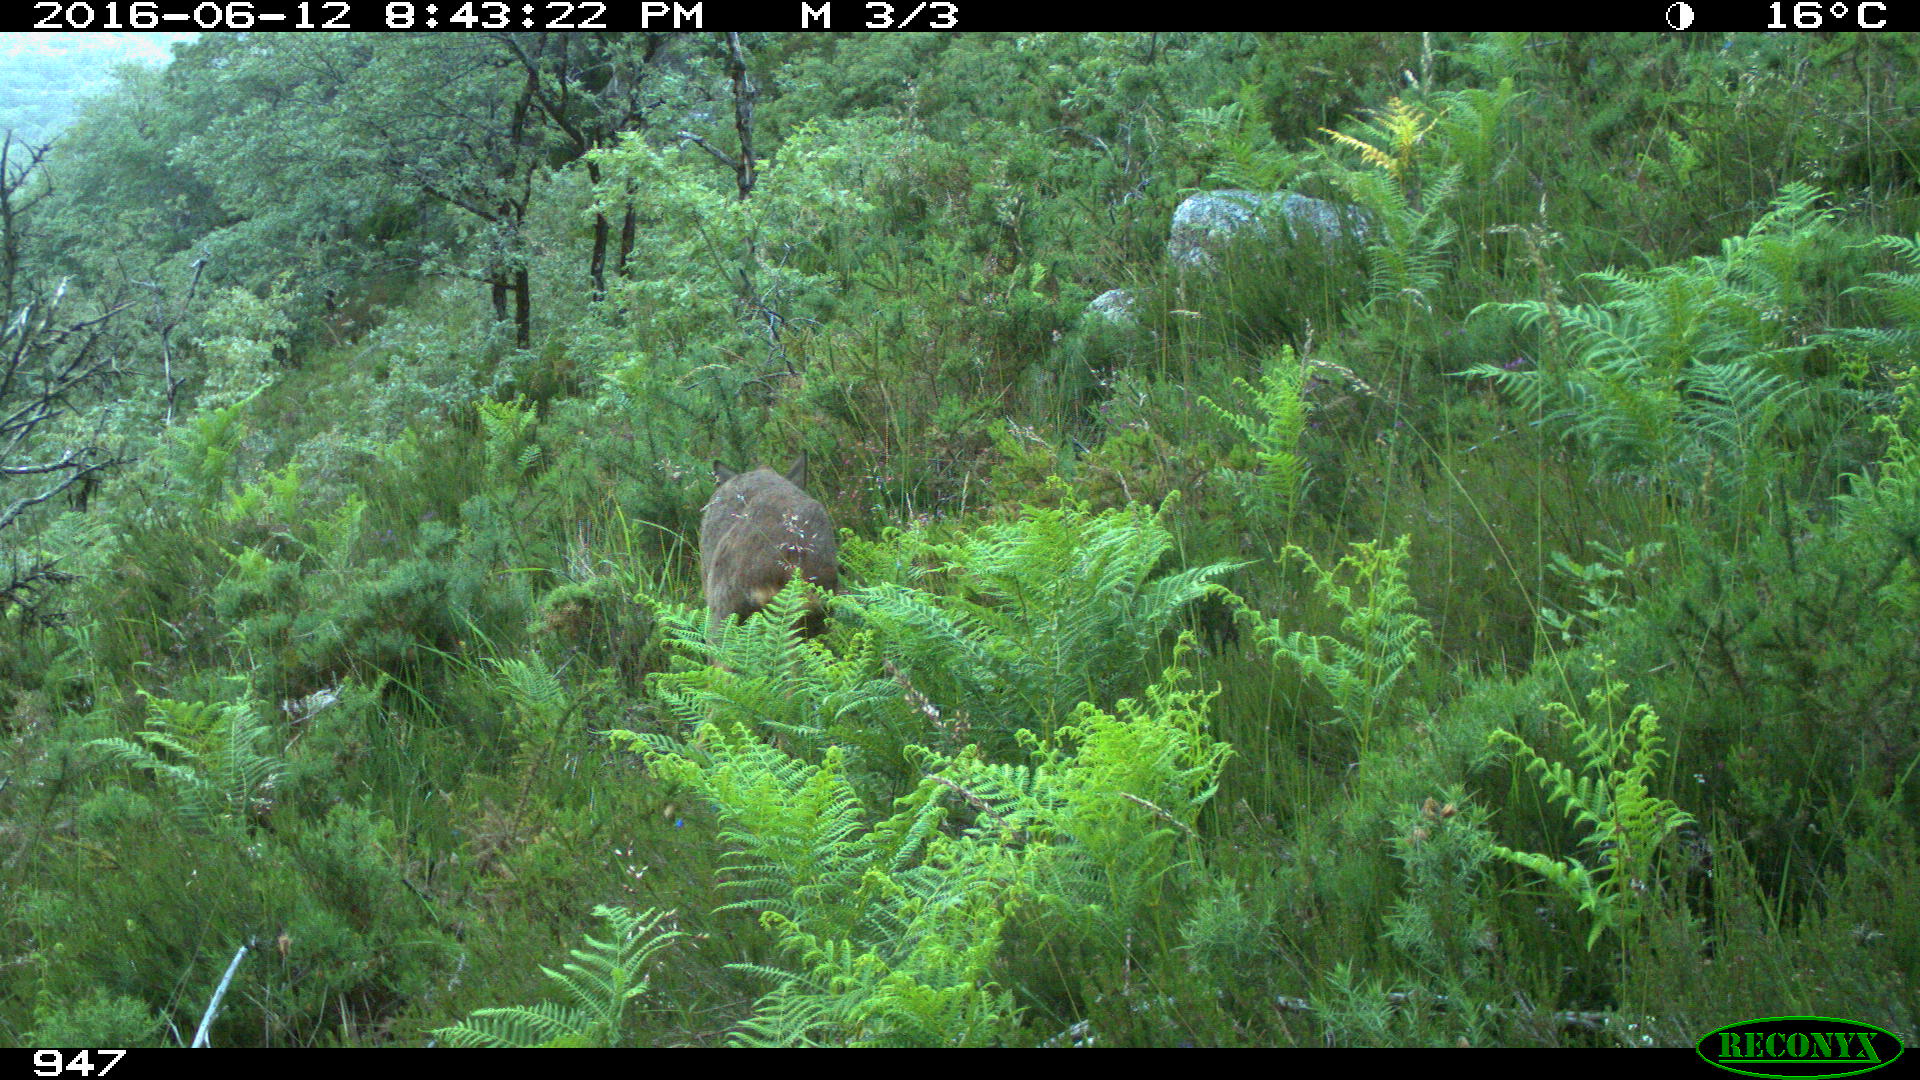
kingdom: Animalia
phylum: Chordata
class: Mammalia
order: Artiodactyla
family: Cervidae
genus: Capreolus
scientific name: Capreolus capreolus
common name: Western roe deer
